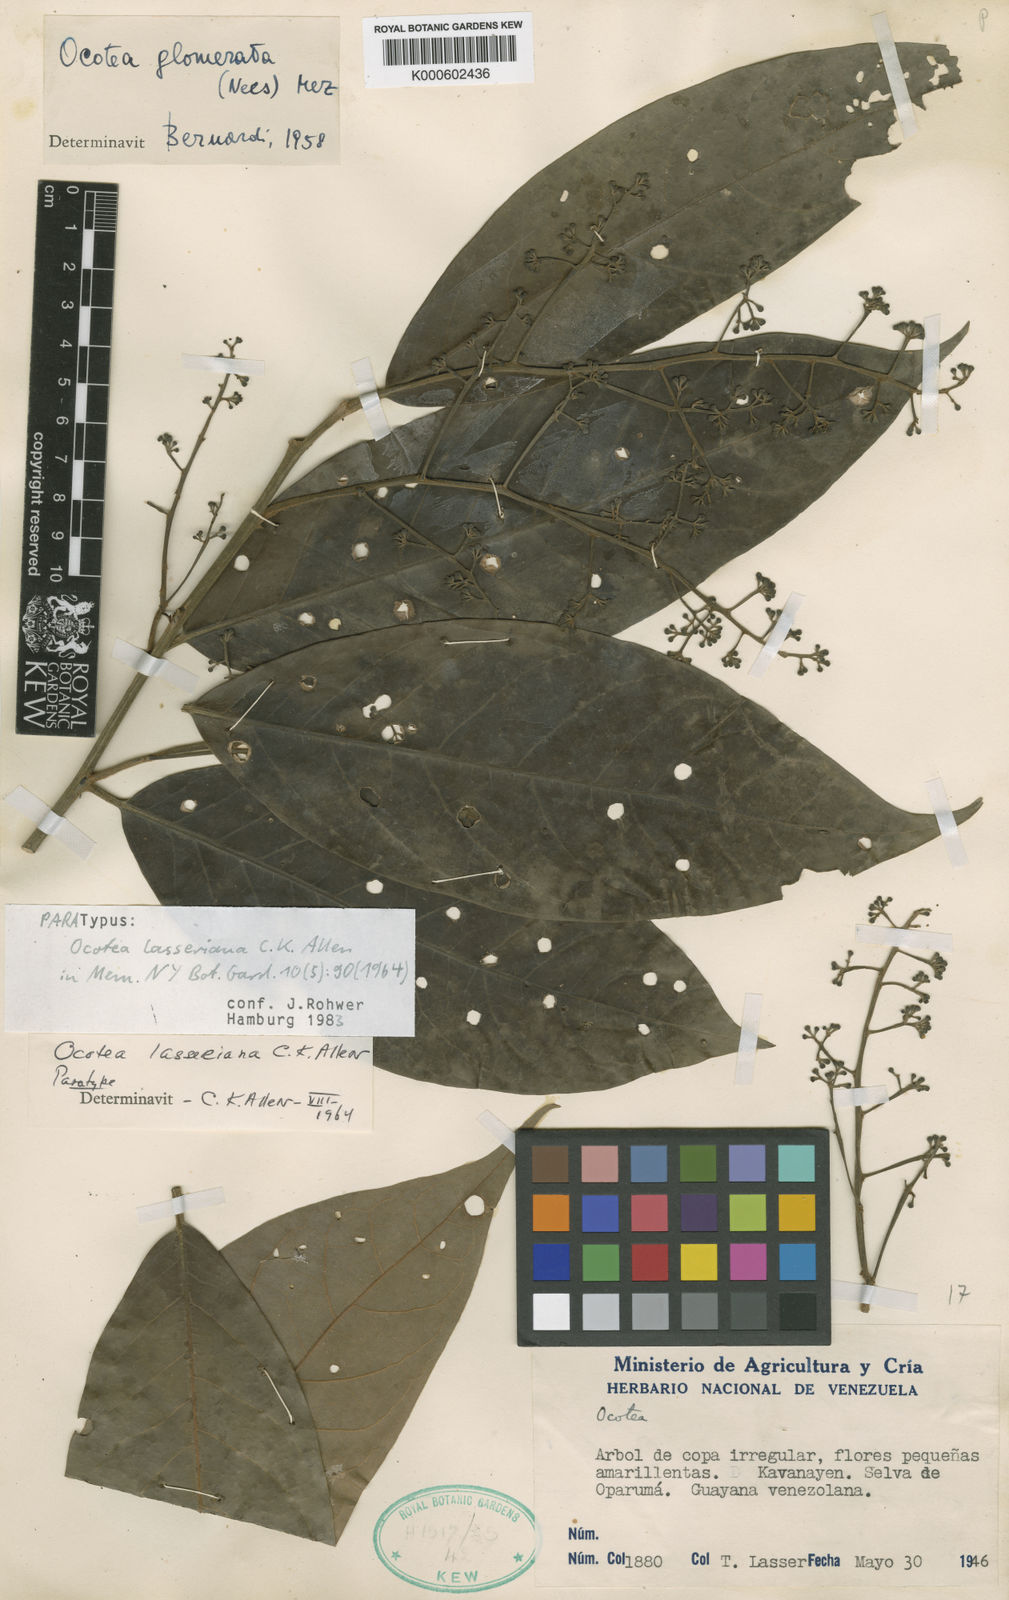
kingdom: Plantae
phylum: Tracheophyta
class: Magnoliopsida
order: Laurales
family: Lauraceae
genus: Ocotea
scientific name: Ocotea leucoxylon
